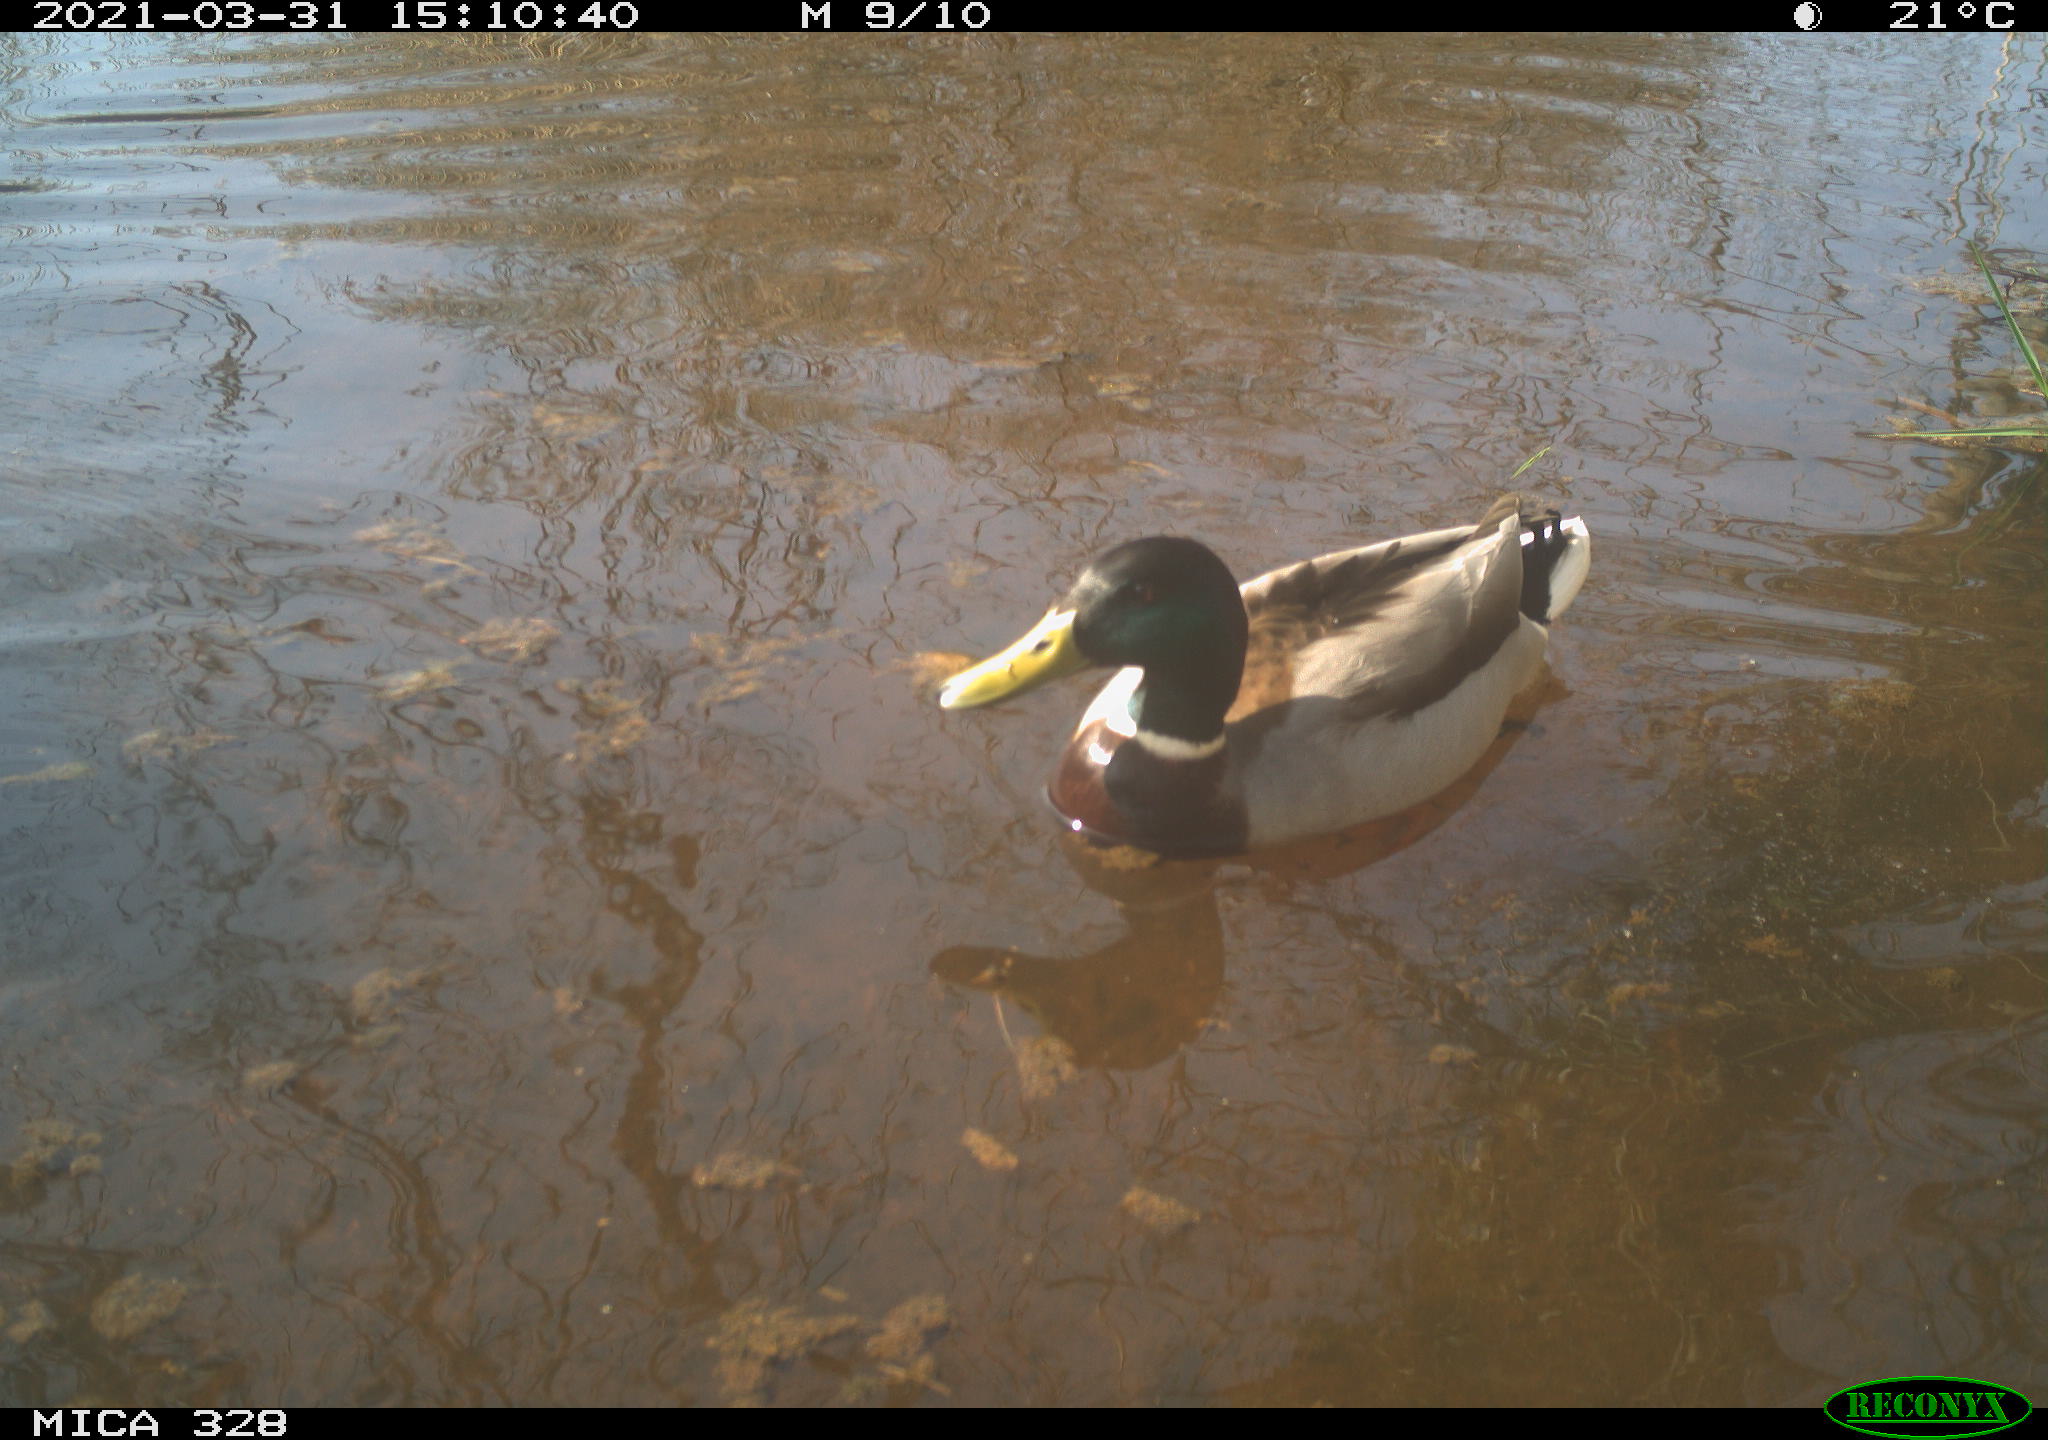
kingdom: Animalia
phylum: Chordata
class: Aves
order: Anseriformes
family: Anatidae
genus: Anas
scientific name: Anas platyrhynchos
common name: Mallard
